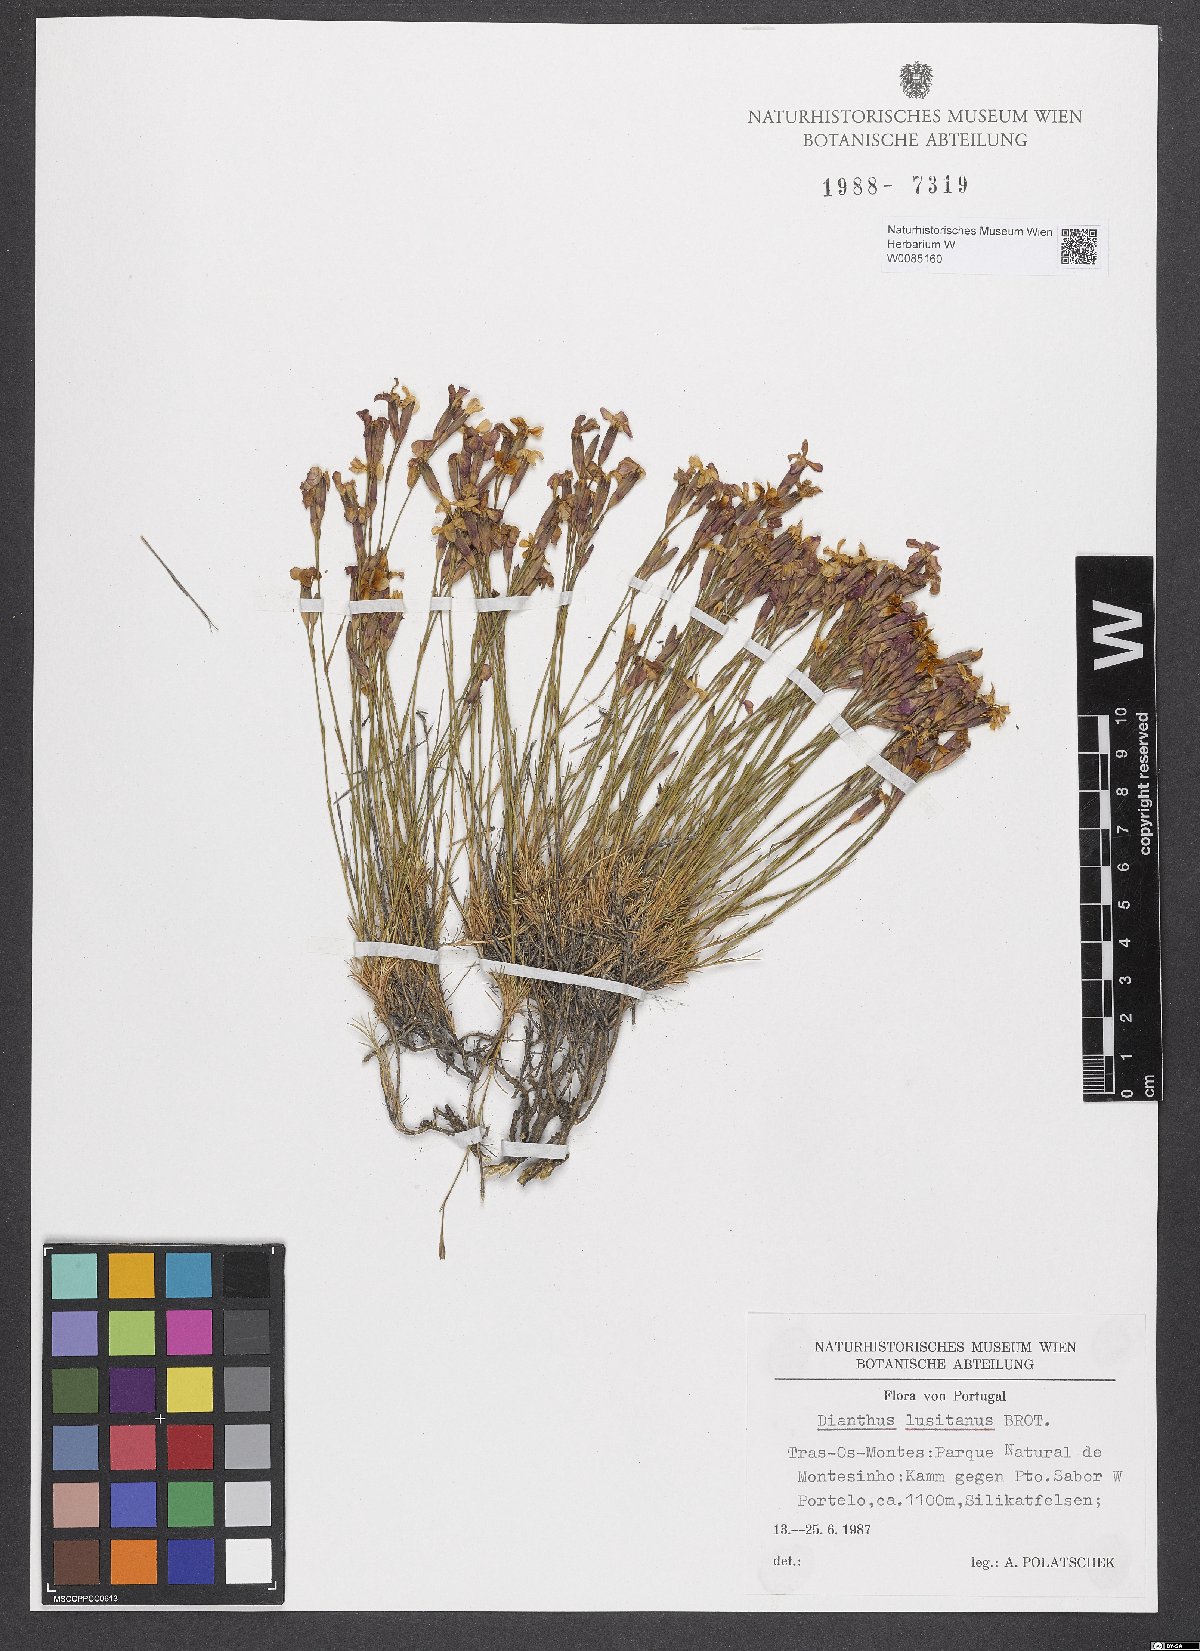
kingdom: Plantae
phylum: Tracheophyta
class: Magnoliopsida
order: Caryophyllales
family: Caryophyllaceae
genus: Dianthus
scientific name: Dianthus lusitanus
